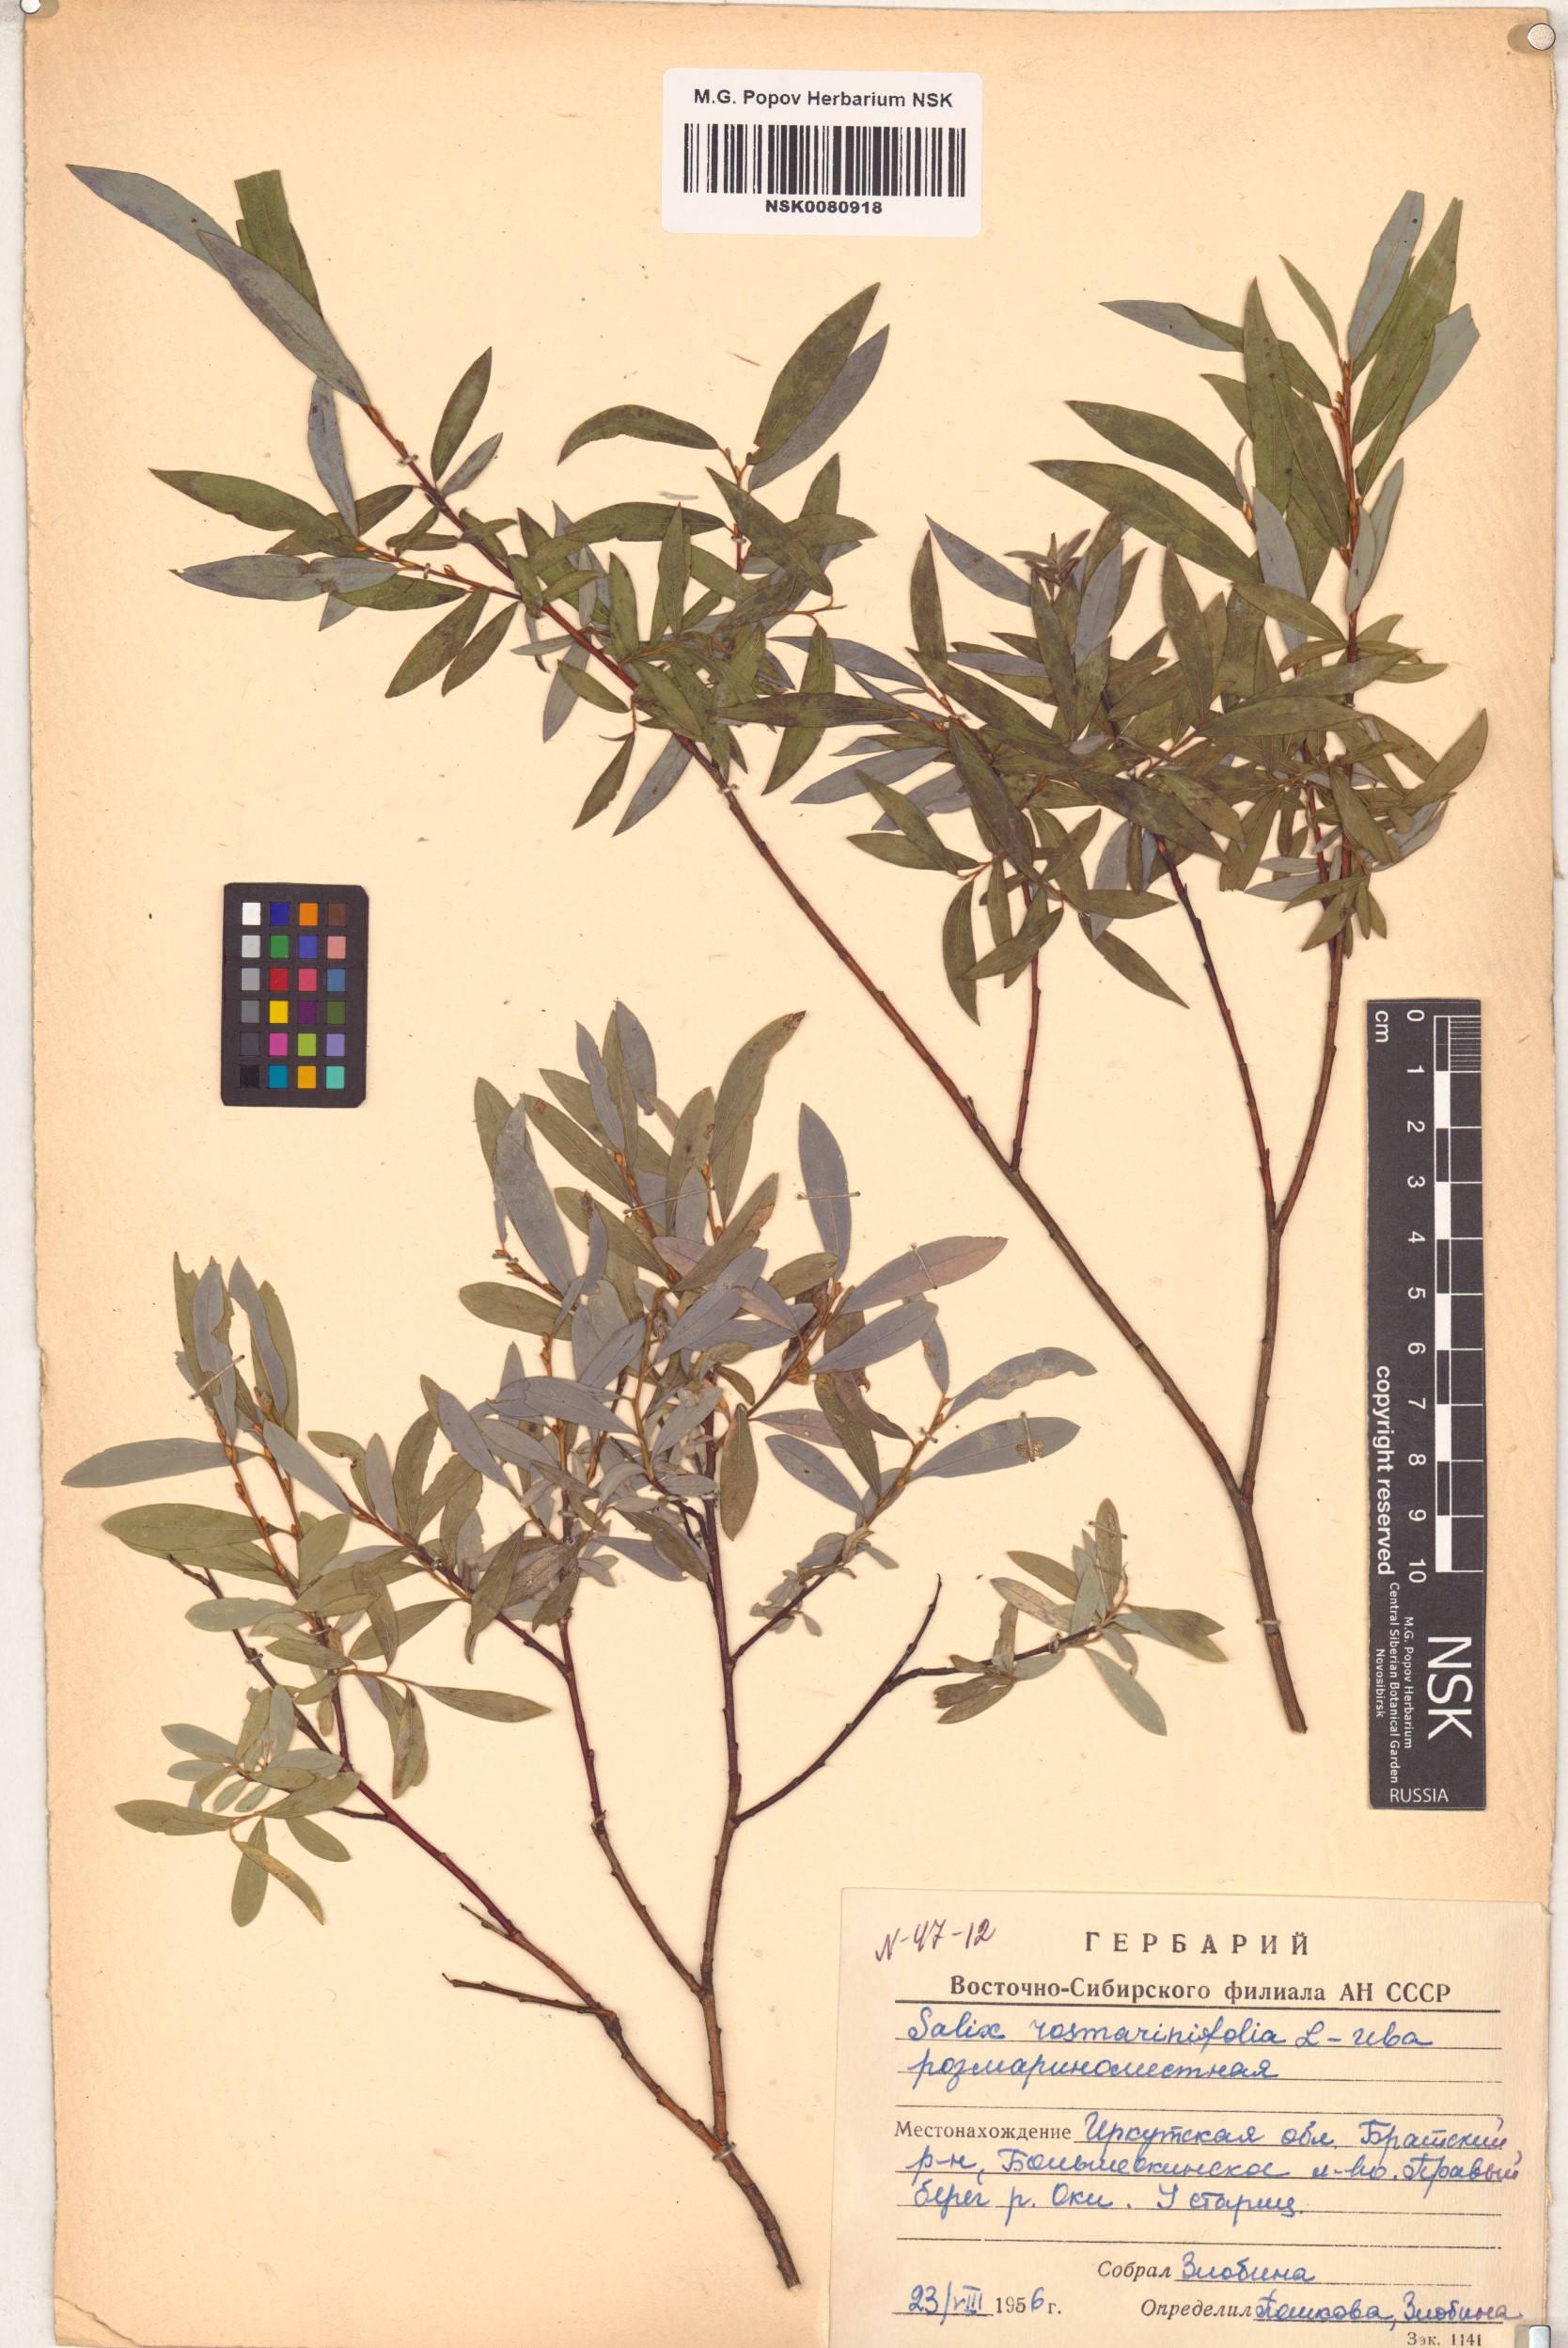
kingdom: Plantae
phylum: Tracheophyta
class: Magnoliopsida
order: Malpighiales
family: Salicaceae
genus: Salix
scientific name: Salix rosmarinifolia
